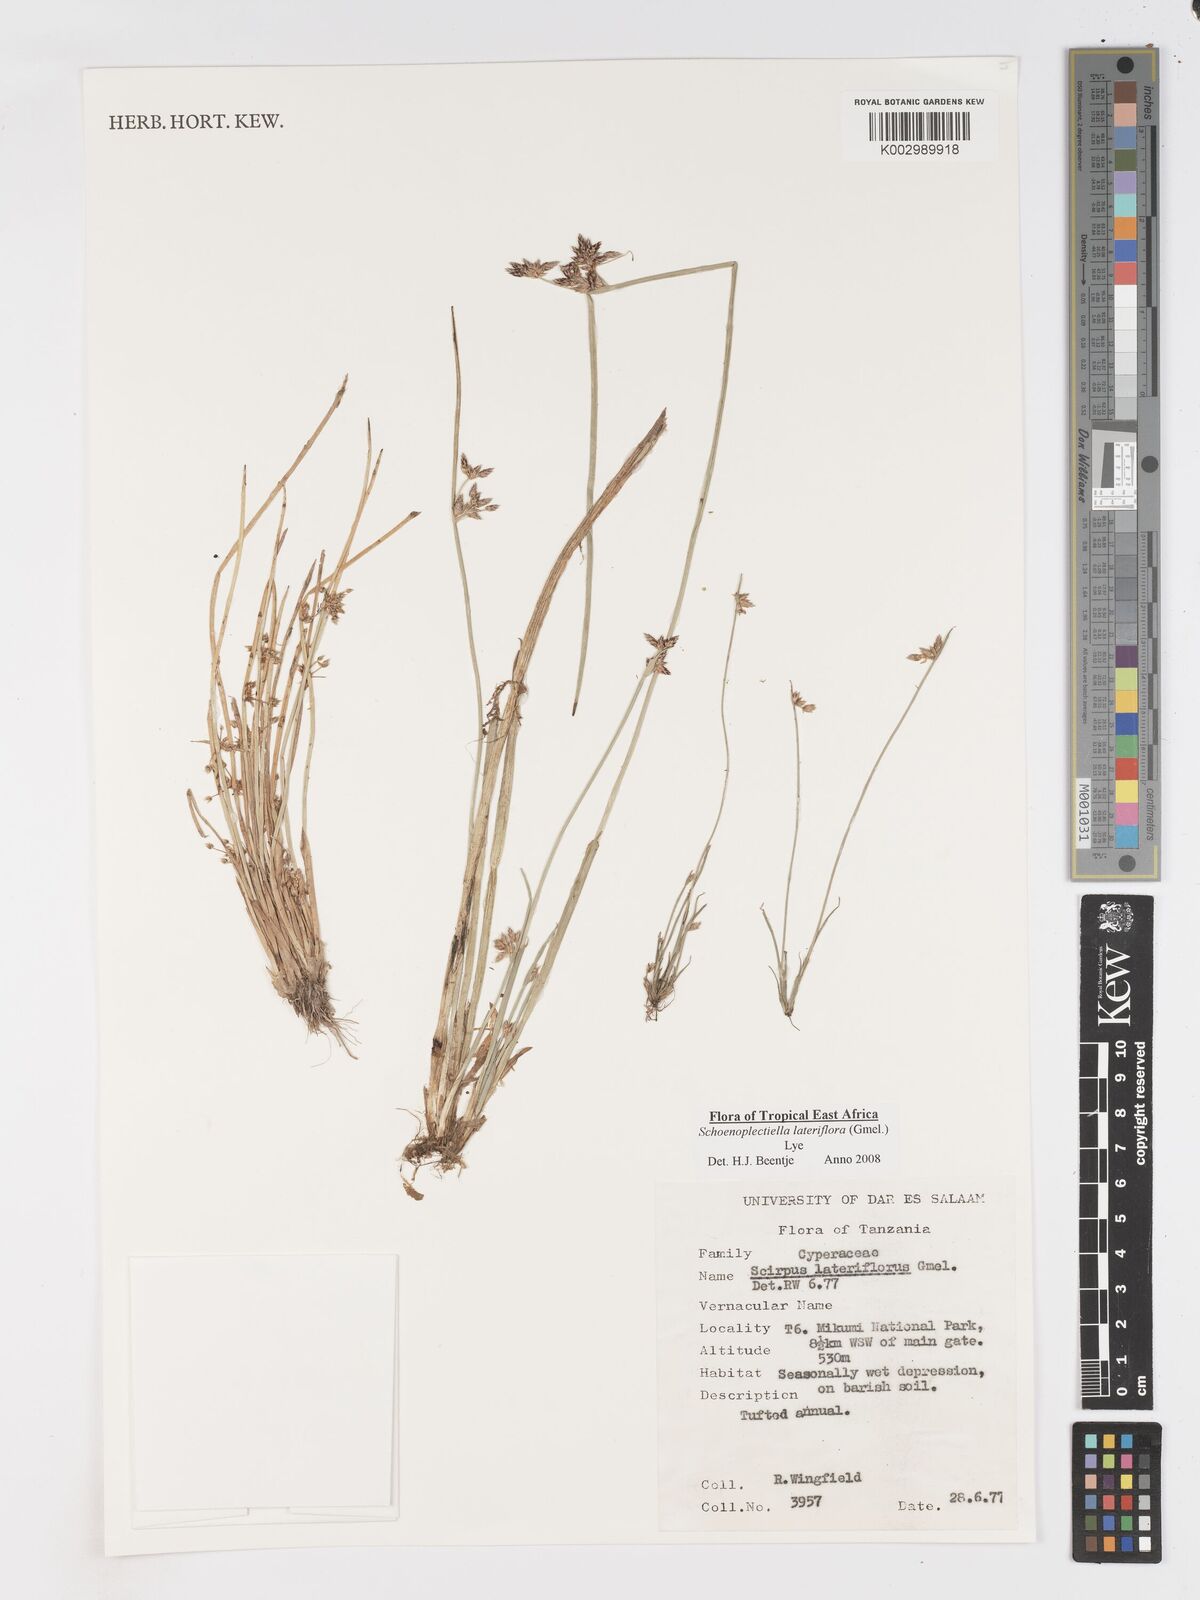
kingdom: Plantae
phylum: Tracheophyta
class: Liliopsida
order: Poales
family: Cyperaceae
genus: Schoenoplectiella
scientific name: Schoenoplectiella lateriflora
